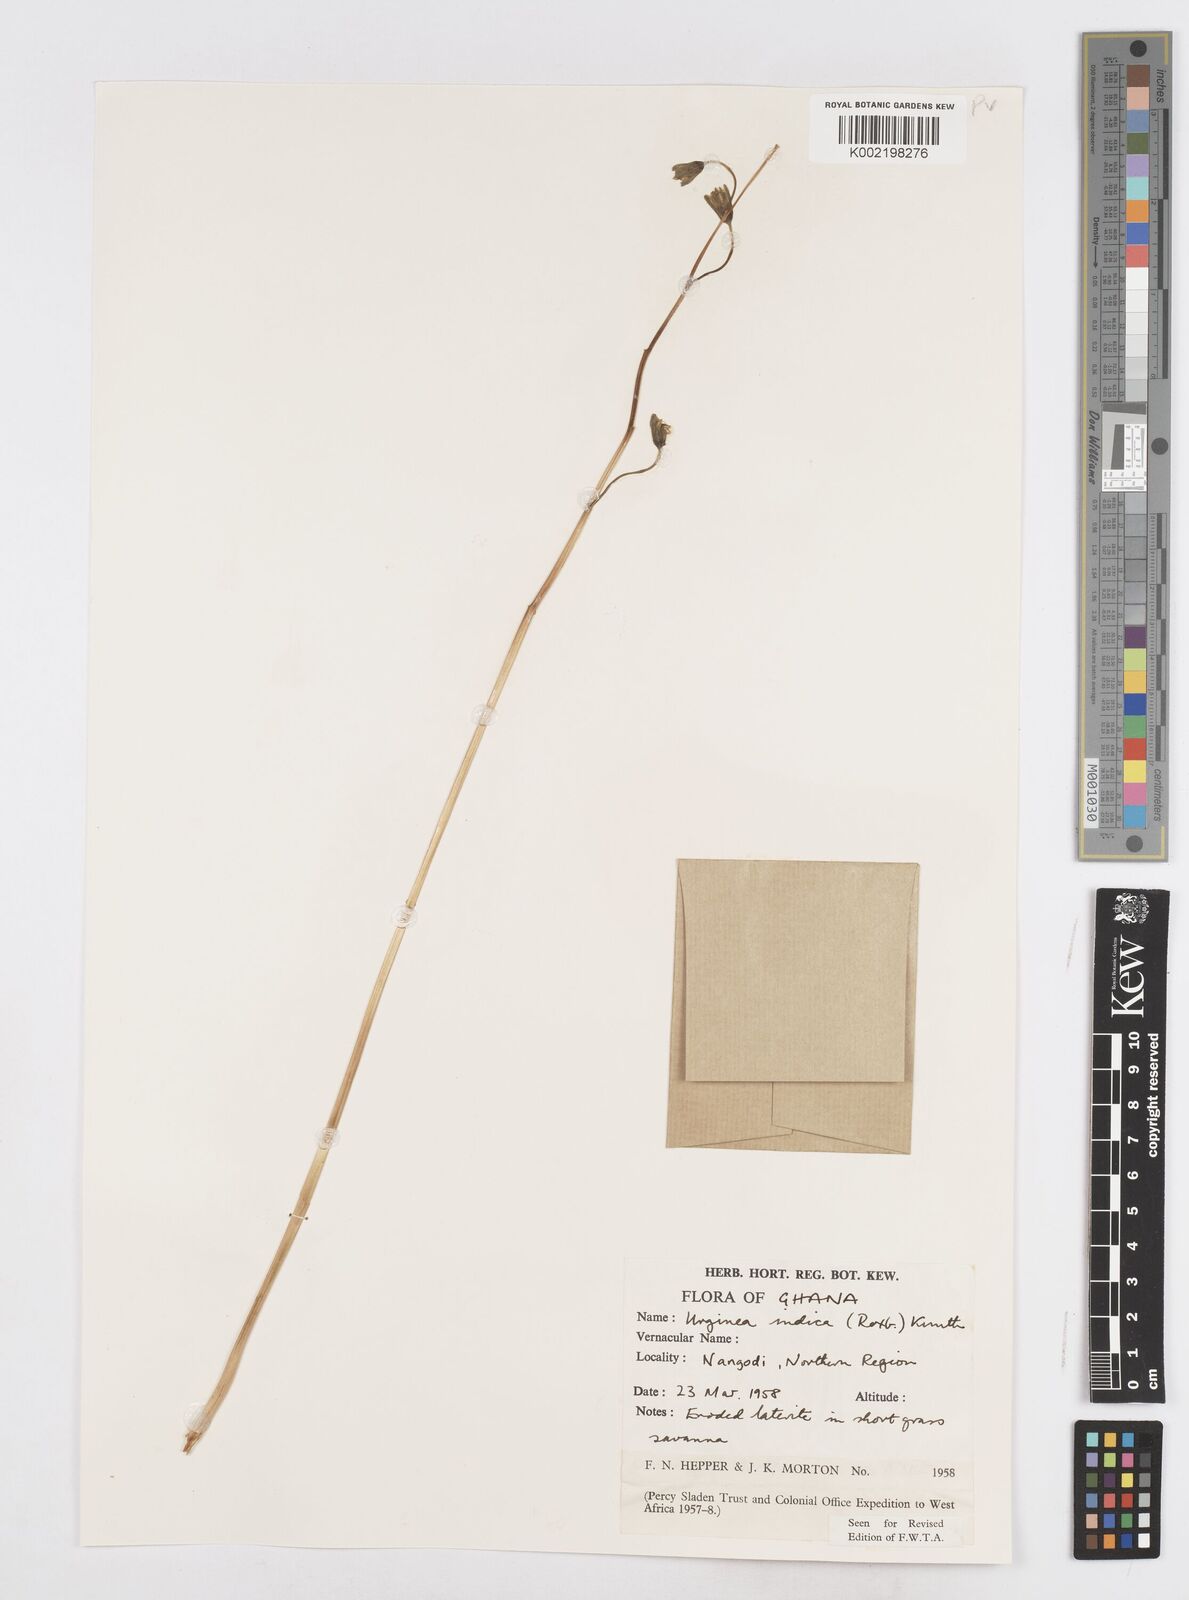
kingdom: Plantae
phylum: Tracheophyta
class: Liliopsida
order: Asparagales
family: Asparagaceae
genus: Drimia
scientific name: Drimia indica
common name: Indian-squill
